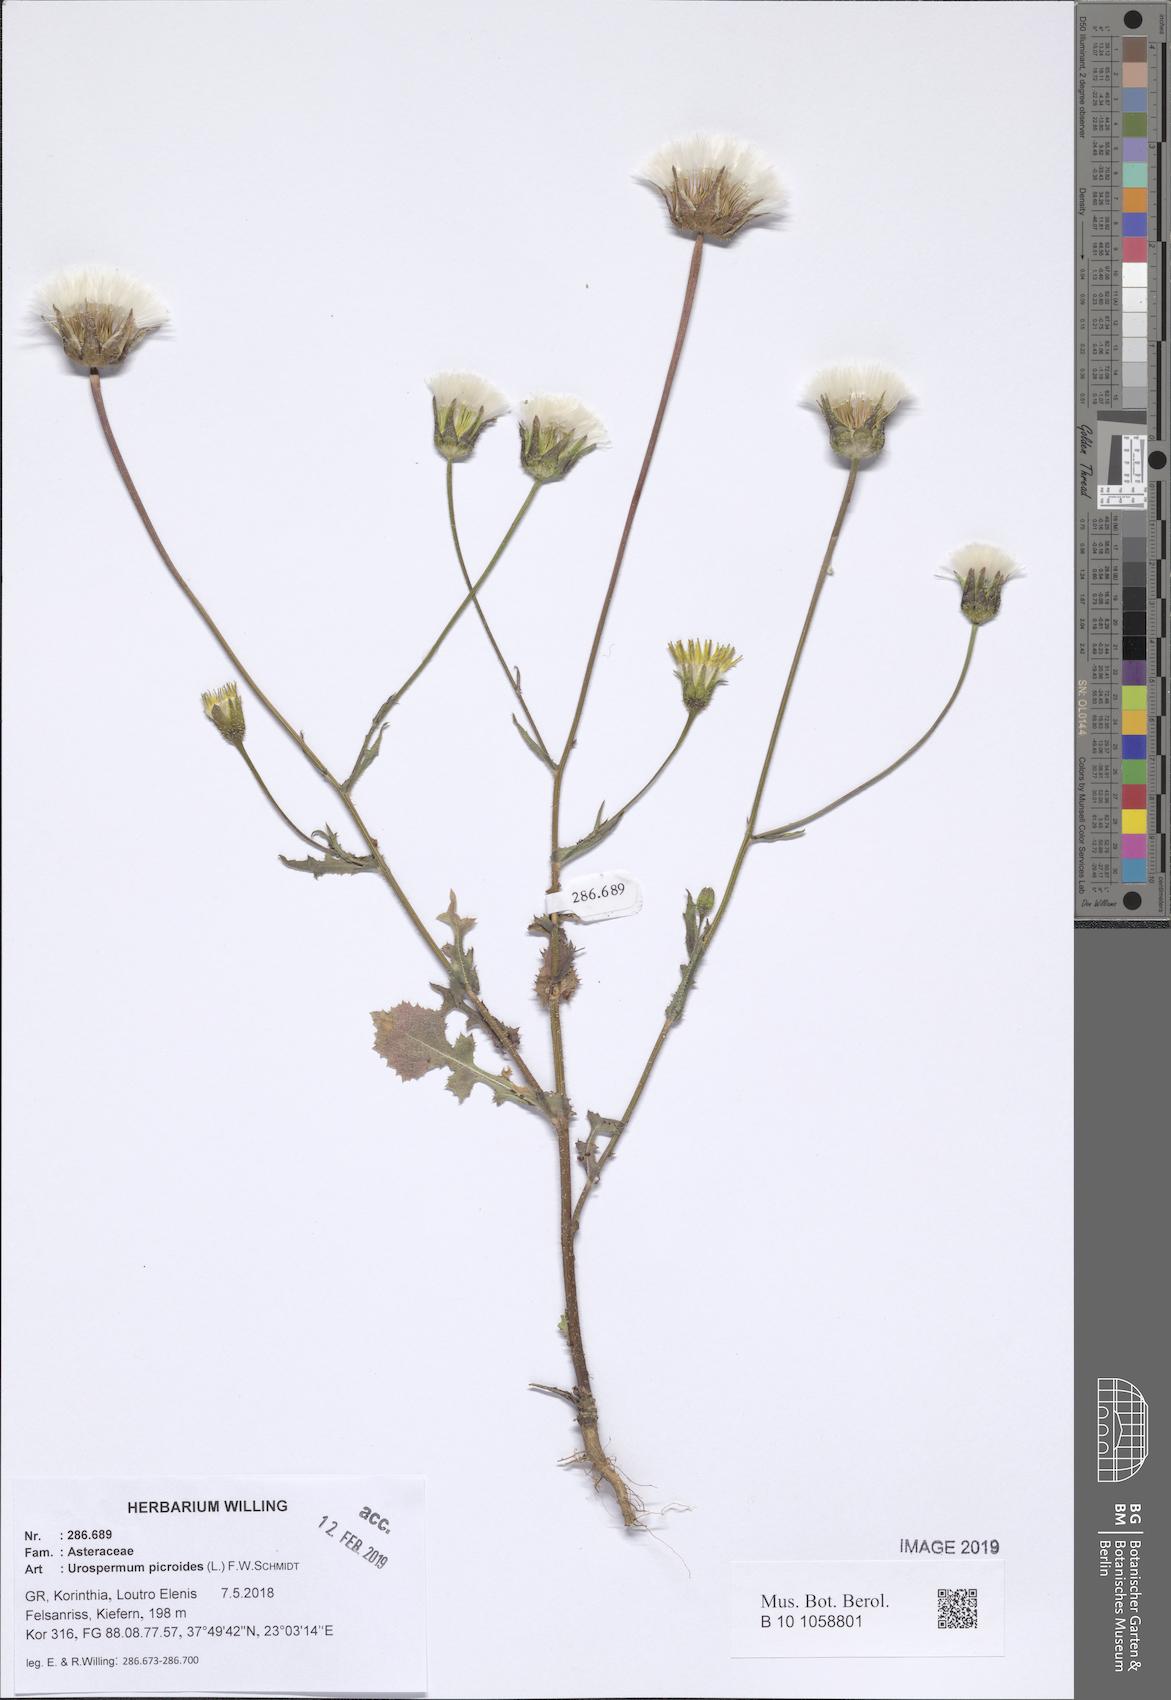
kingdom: Plantae
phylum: Tracheophyta
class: Magnoliopsida
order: Asterales
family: Asteraceae
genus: Urospermum
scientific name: Urospermum picroides
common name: False hawkbit
